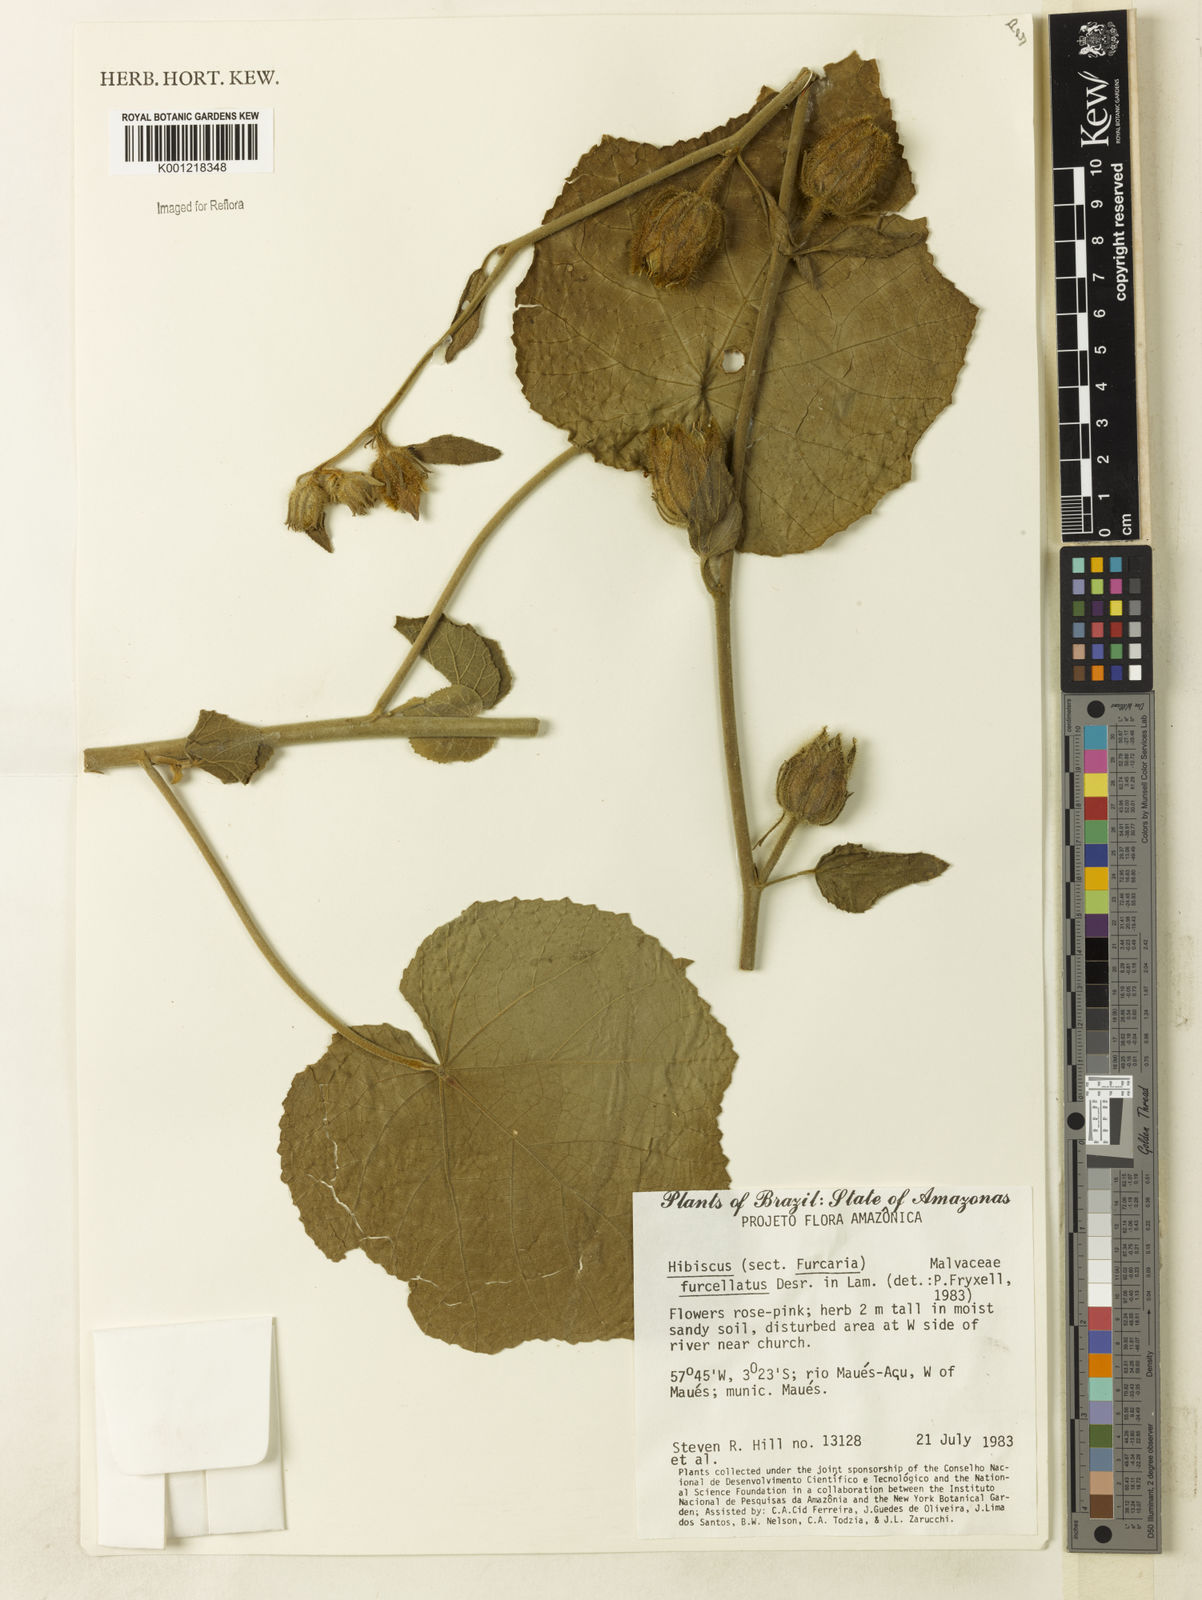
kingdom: Plantae
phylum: Tracheophyta
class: Magnoliopsida
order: Malvales
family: Malvaceae
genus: Hibiscus
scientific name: Hibiscus furcellatus
